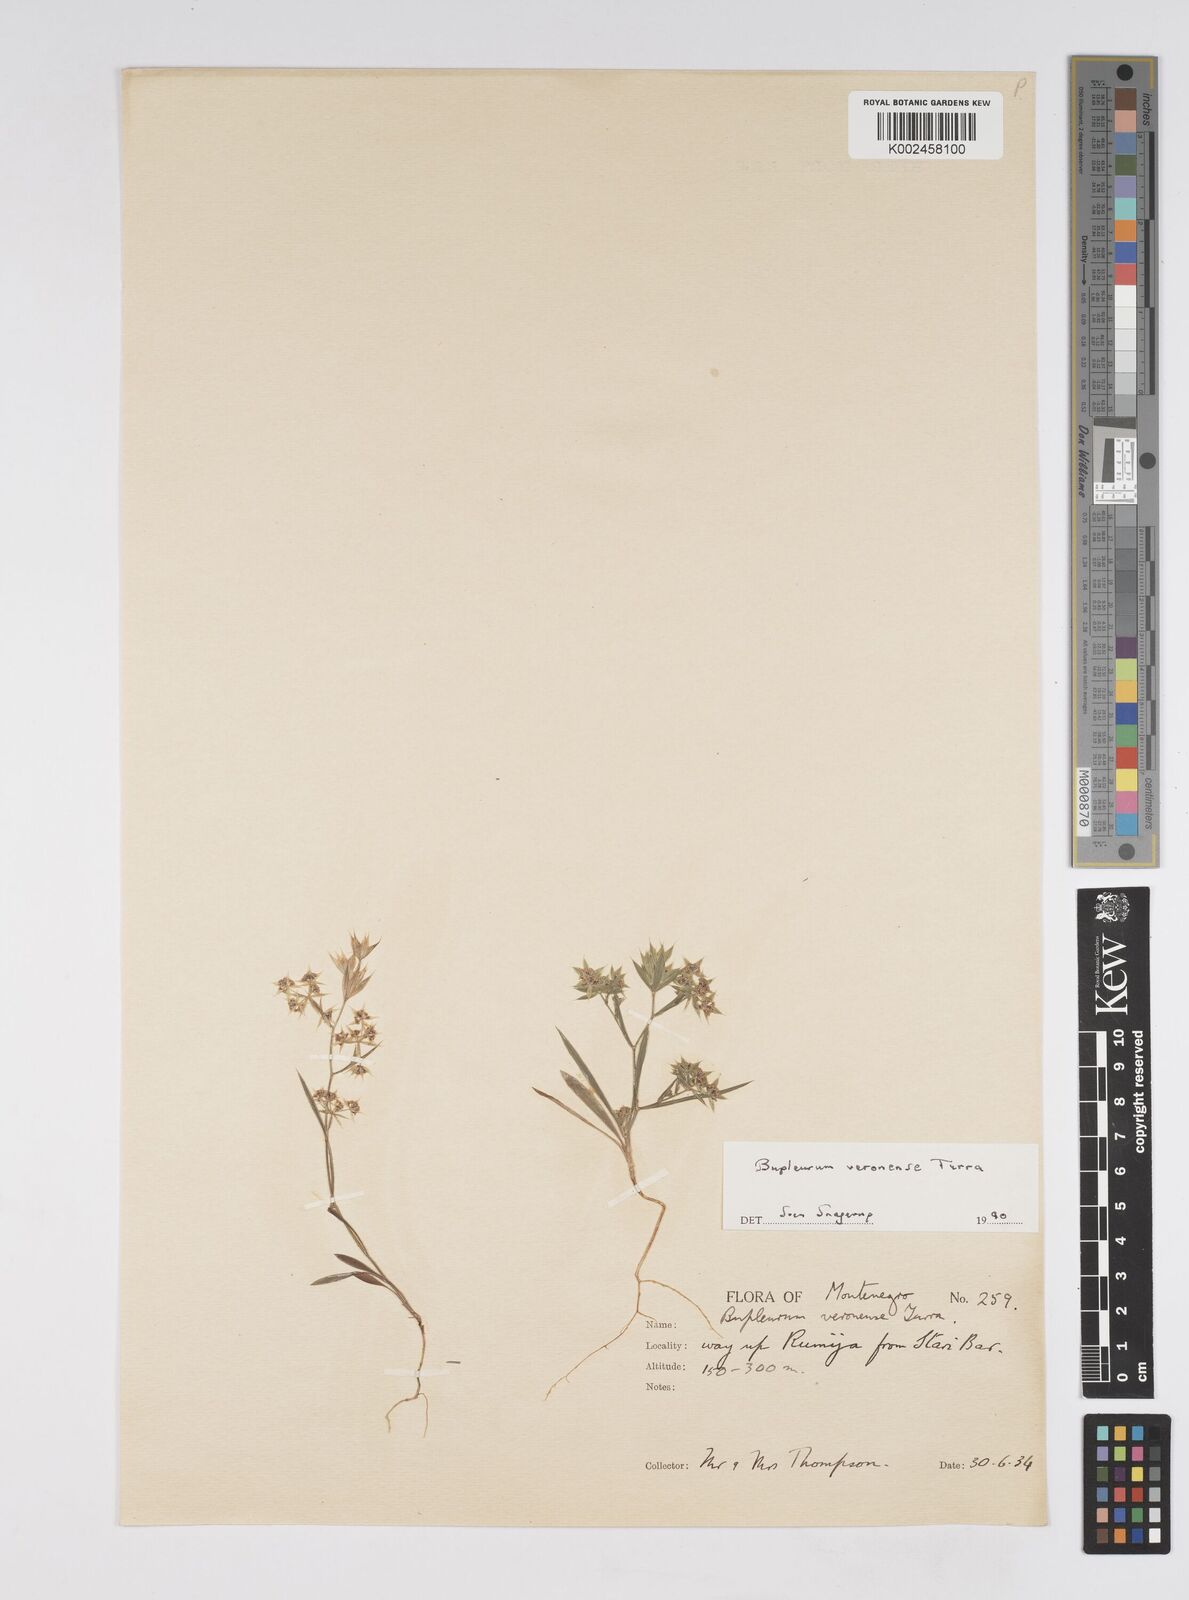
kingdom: Plantae
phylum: Tracheophyta
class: Magnoliopsida
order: Apiales
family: Apiaceae
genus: Bupleurum
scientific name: Bupleurum baldense
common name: Small hare's-ear
